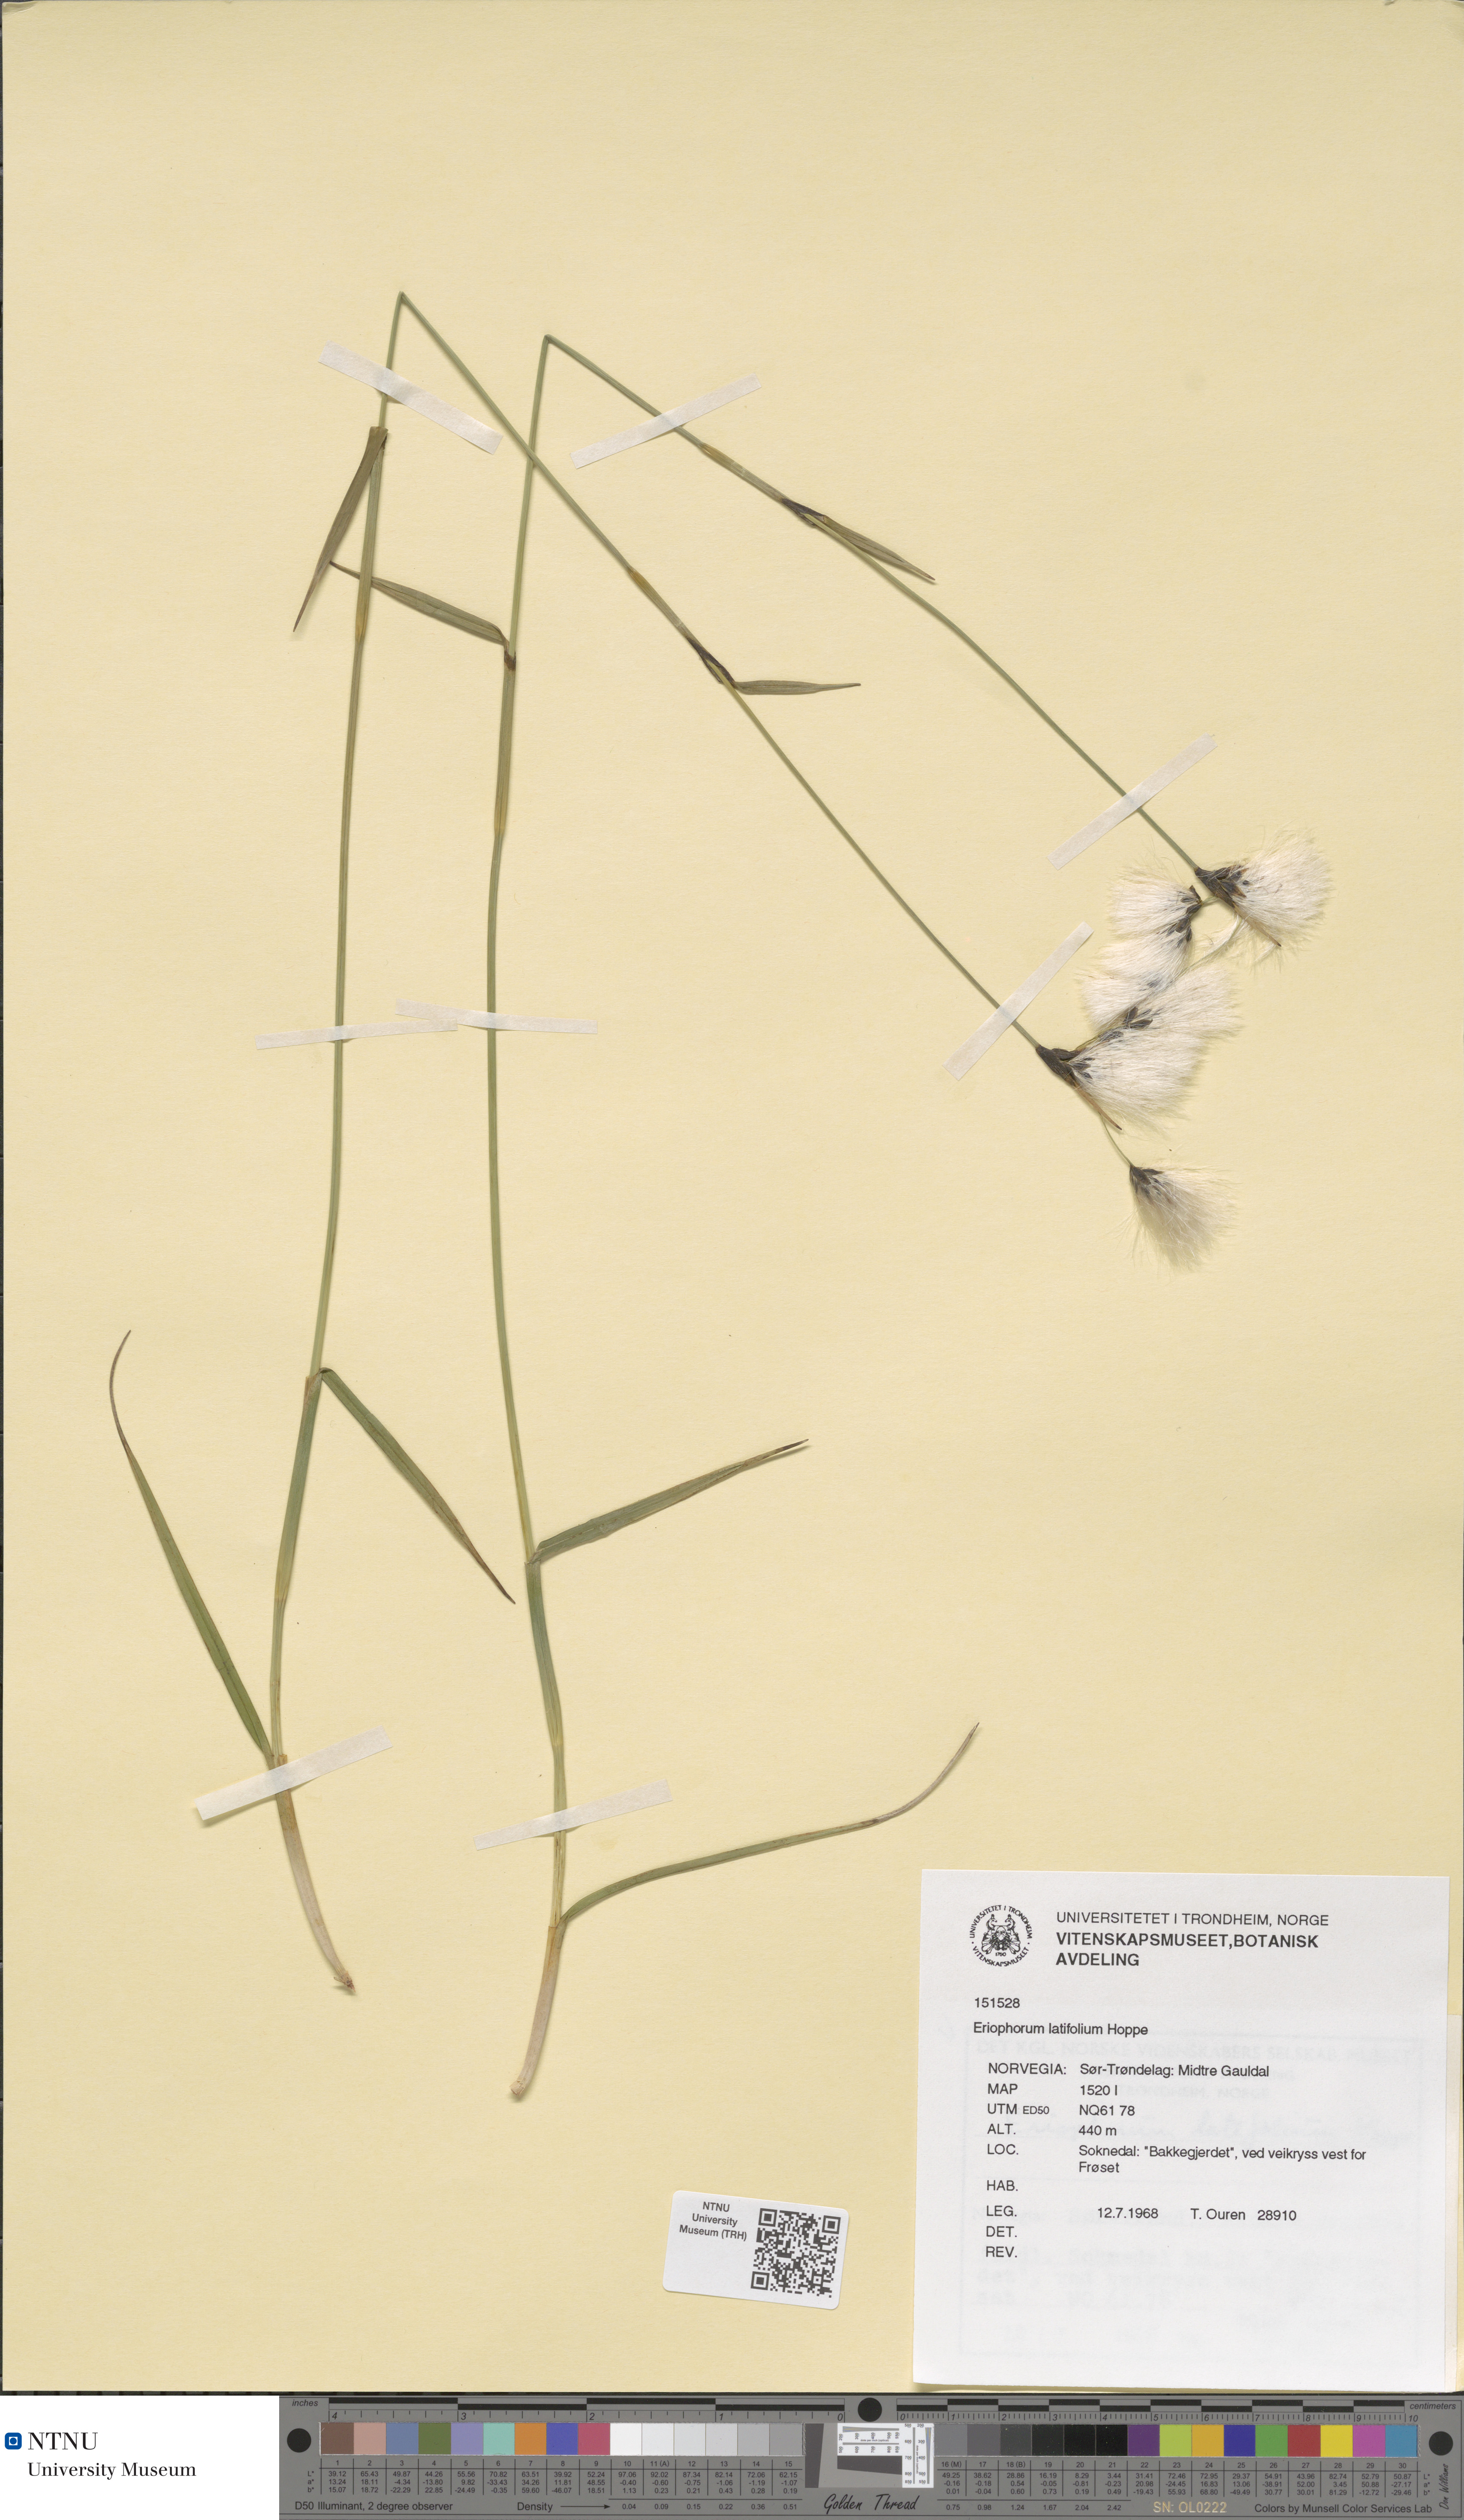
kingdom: Plantae
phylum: Tracheophyta
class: Liliopsida
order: Poales
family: Cyperaceae
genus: Eriophorum
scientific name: Eriophorum latifolium
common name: Broad-leaved cottongrass
